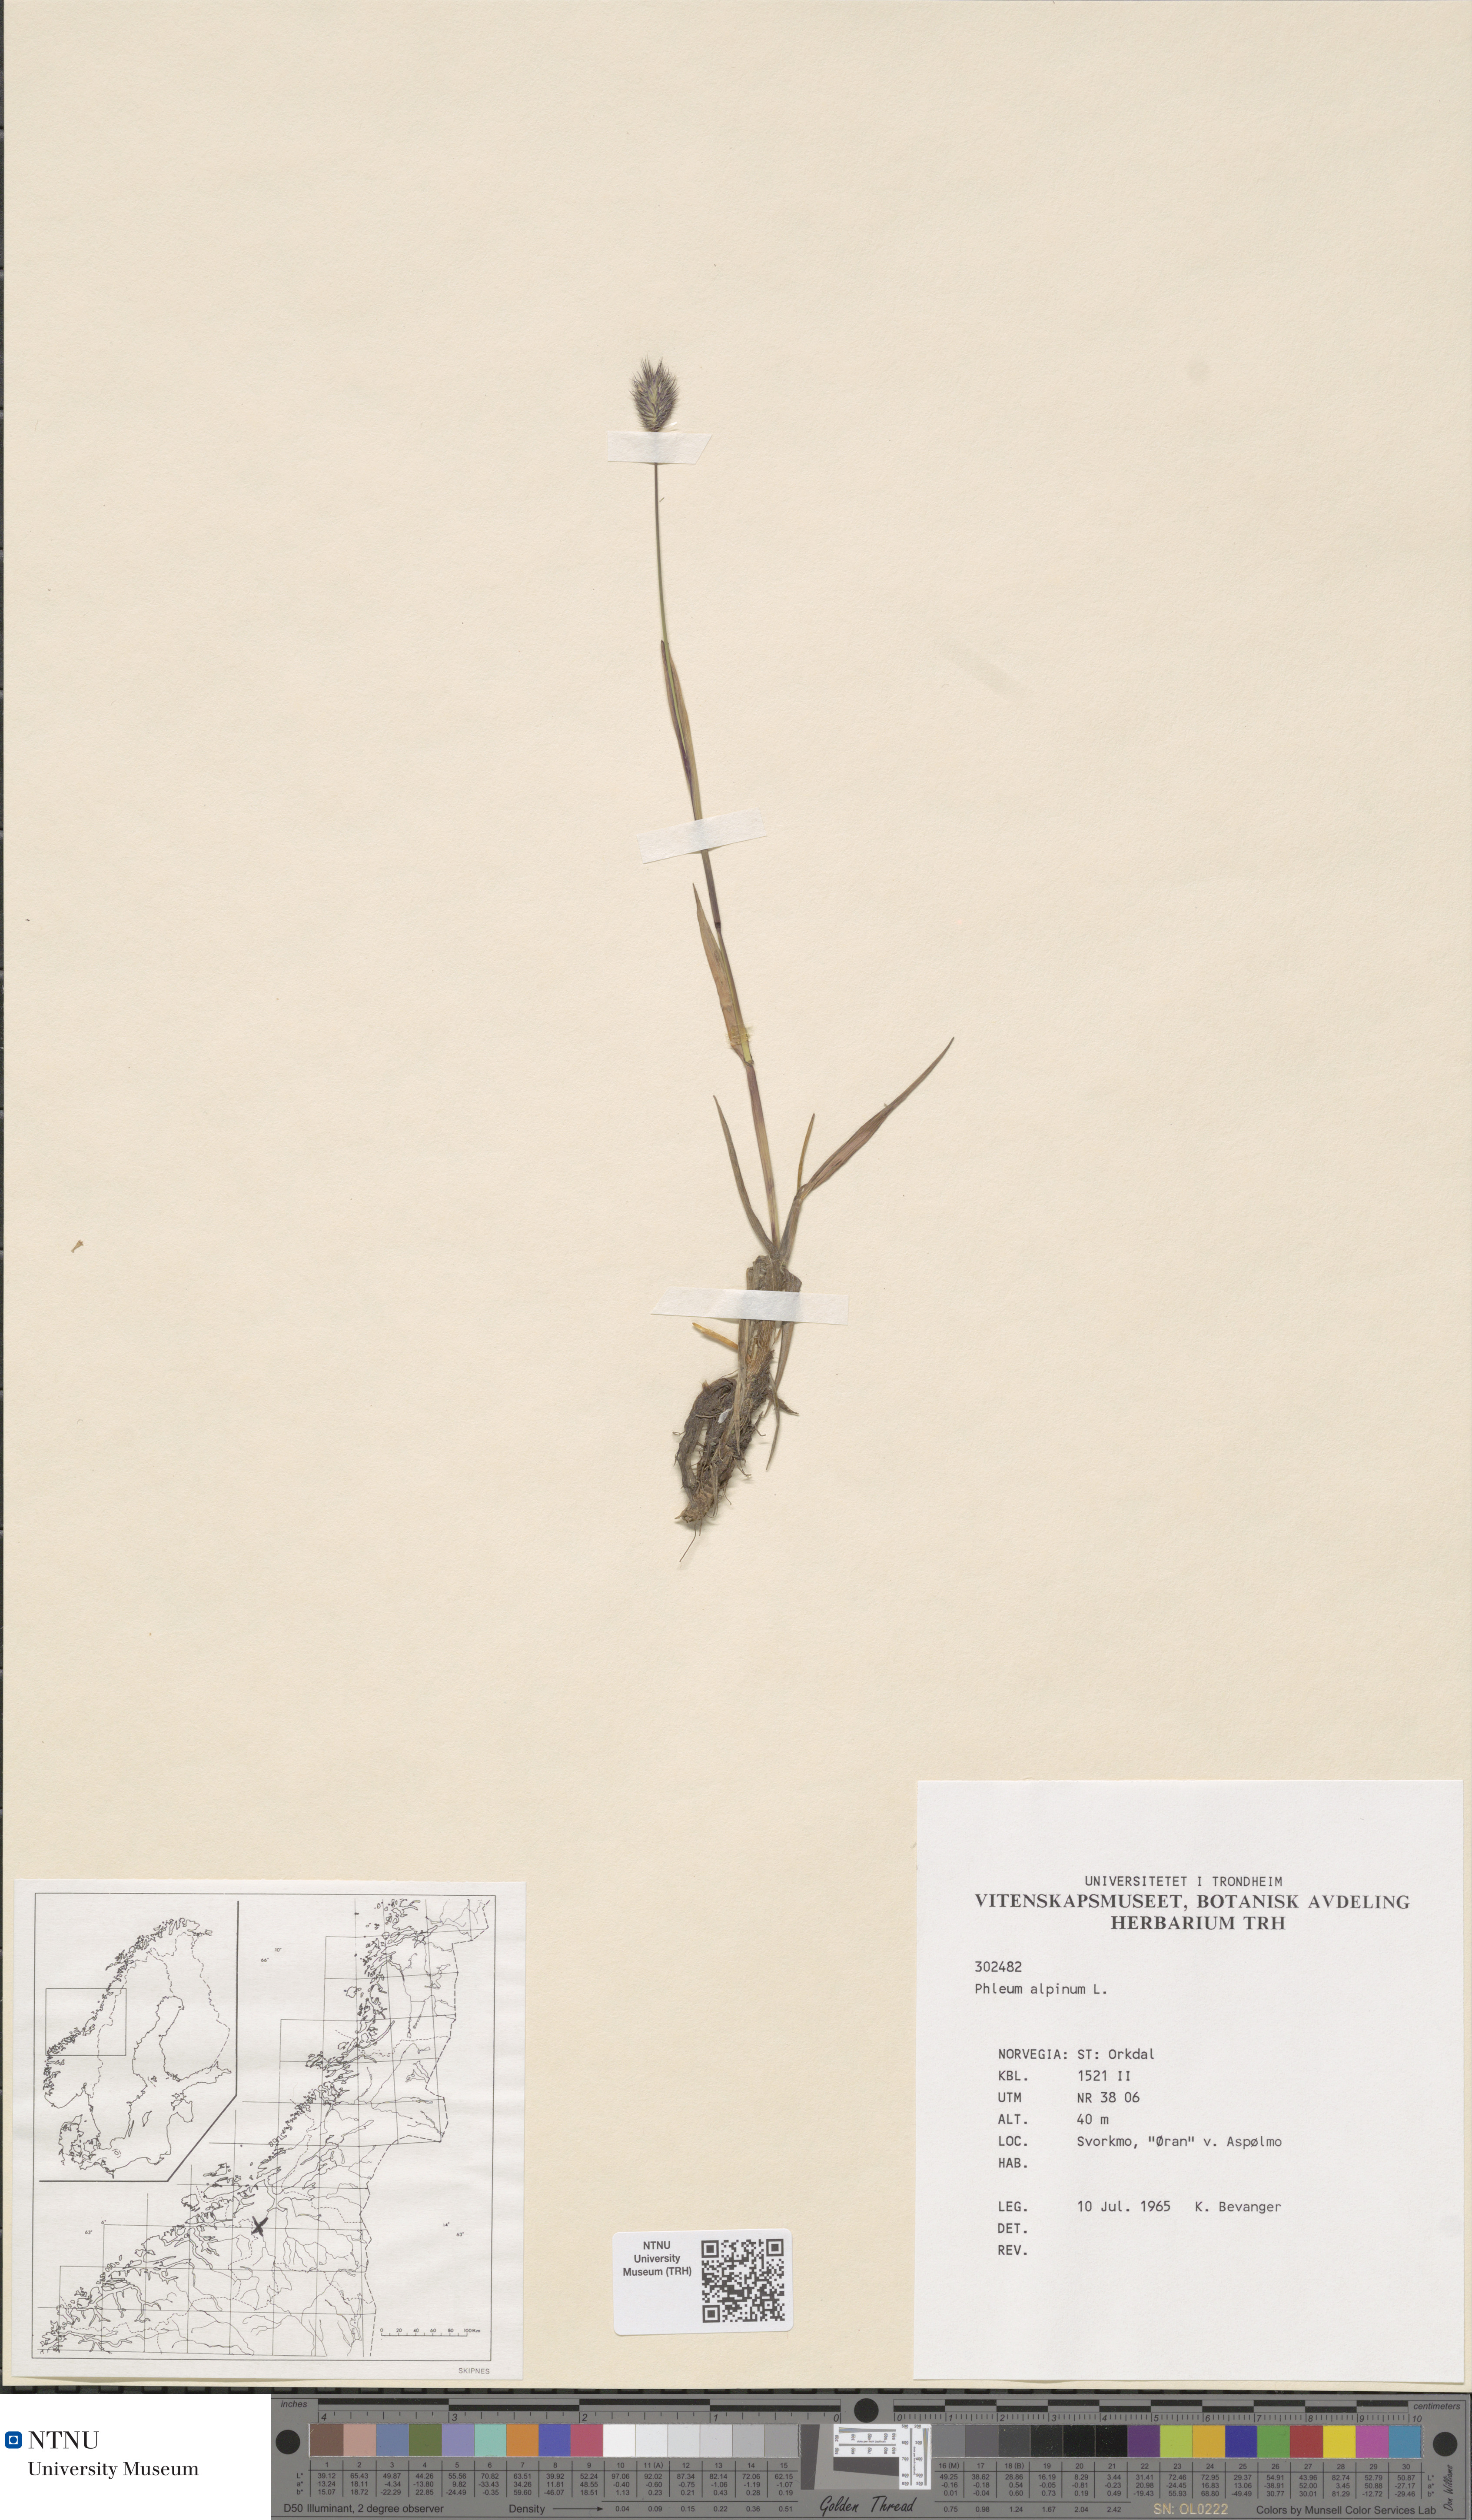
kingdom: Plantae
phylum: Tracheophyta
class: Liliopsida
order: Poales
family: Poaceae
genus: Phleum
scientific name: Phleum alpinum
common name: Alpine cat's-tail
